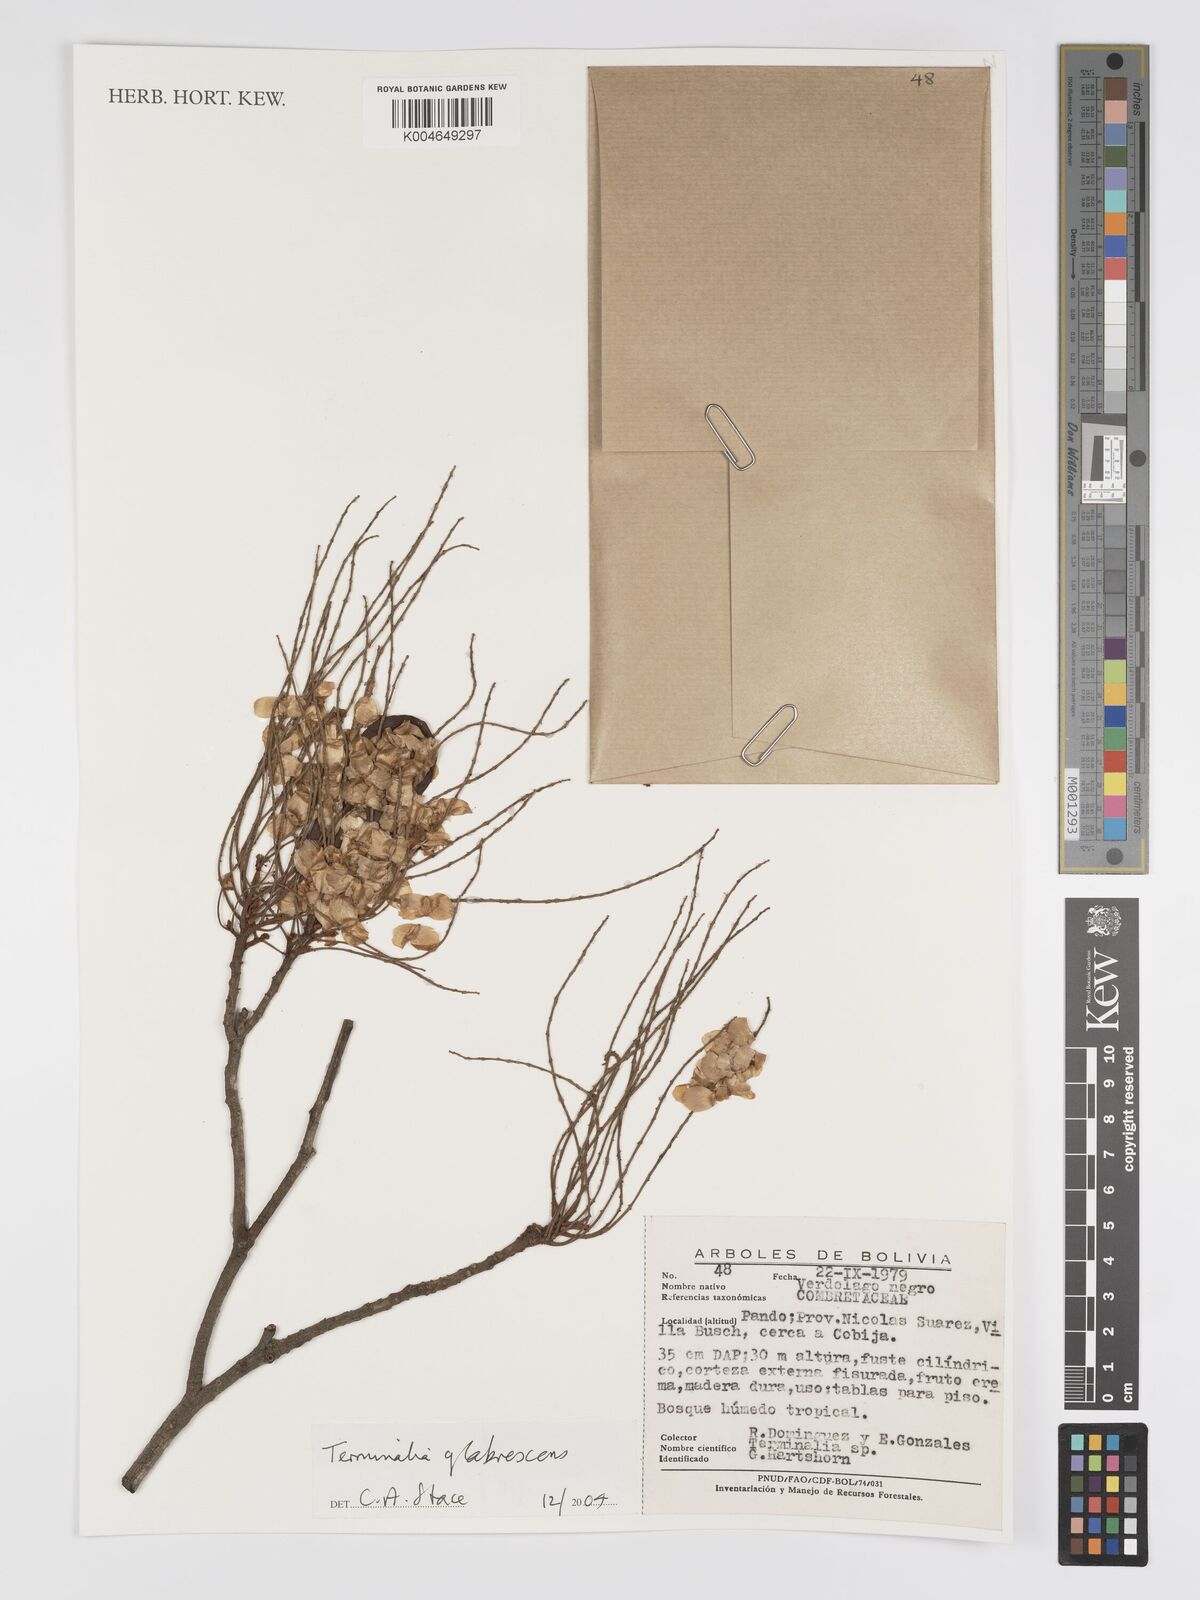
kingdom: Plantae
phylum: Tracheophyta
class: Magnoliopsida
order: Myrtales
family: Combretaceae
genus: Terminalia
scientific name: Terminalia glabrescens
